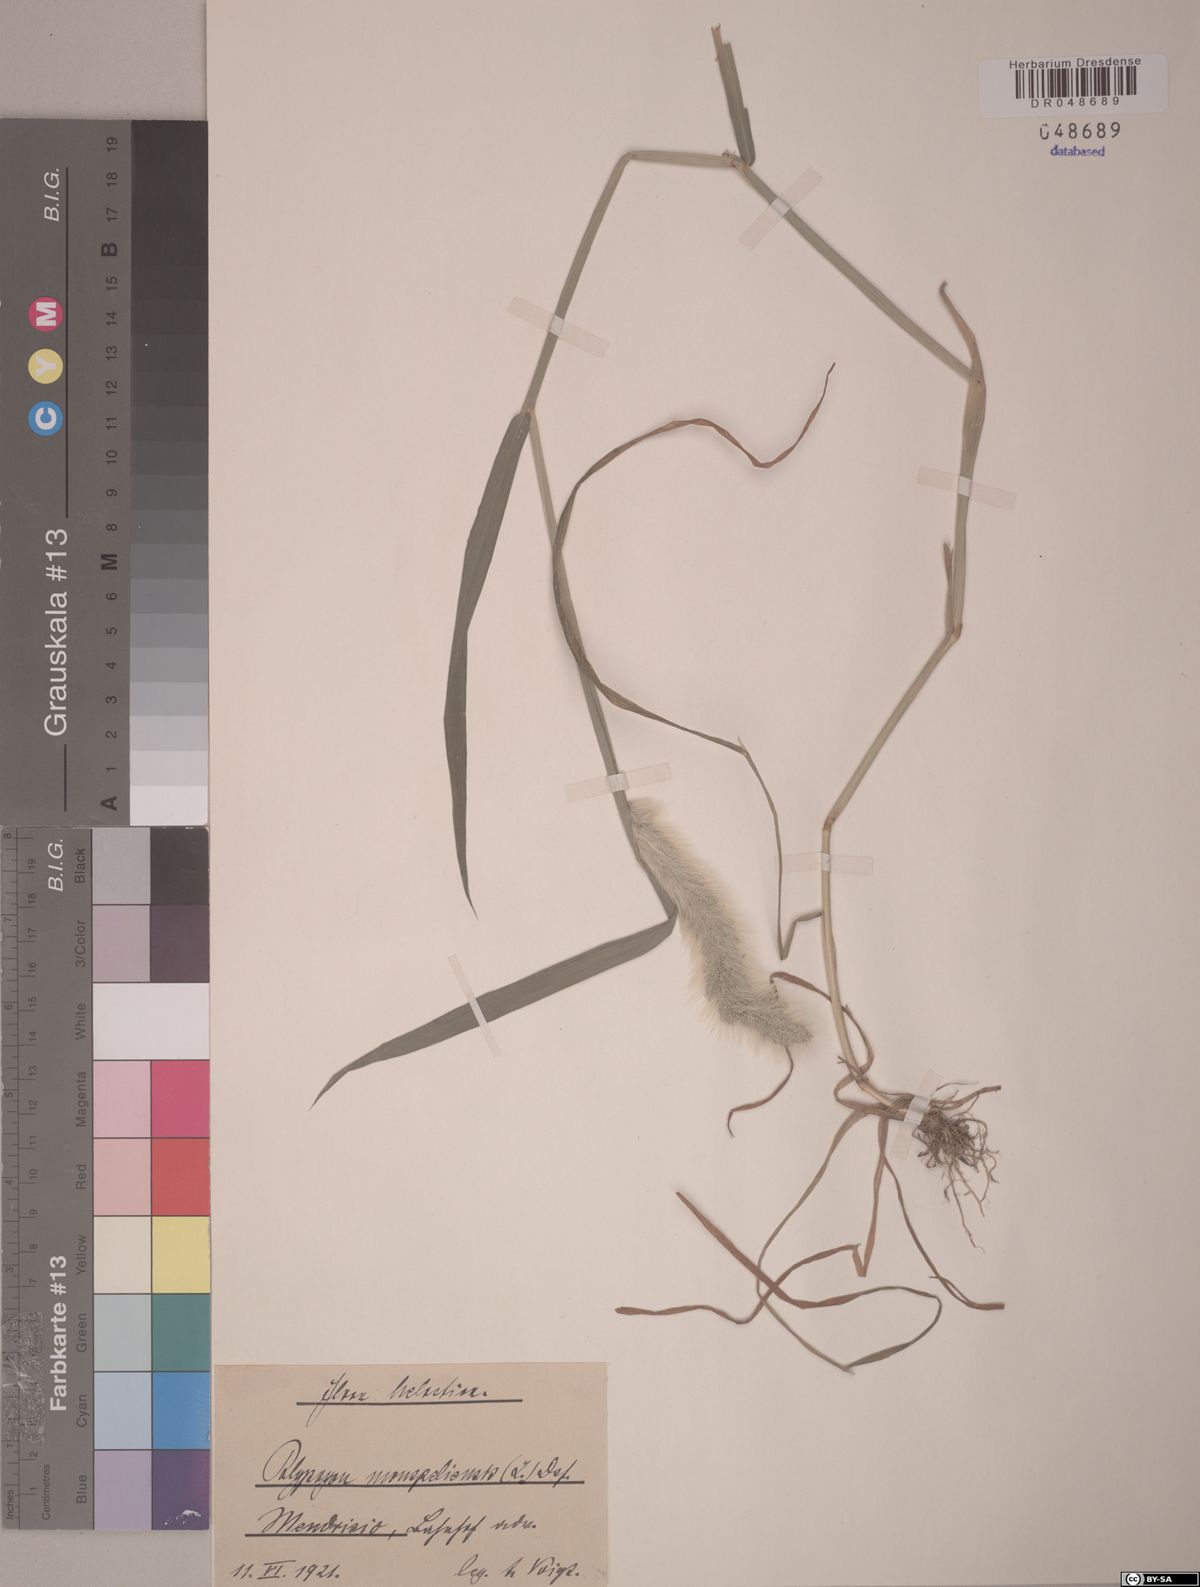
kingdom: Plantae
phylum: Tracheophyta
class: Liliopsida
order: Poales
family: Poaceae
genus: Polypogon
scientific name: Polypogon monspeliensis
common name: Annual rabbitsfoot grass
